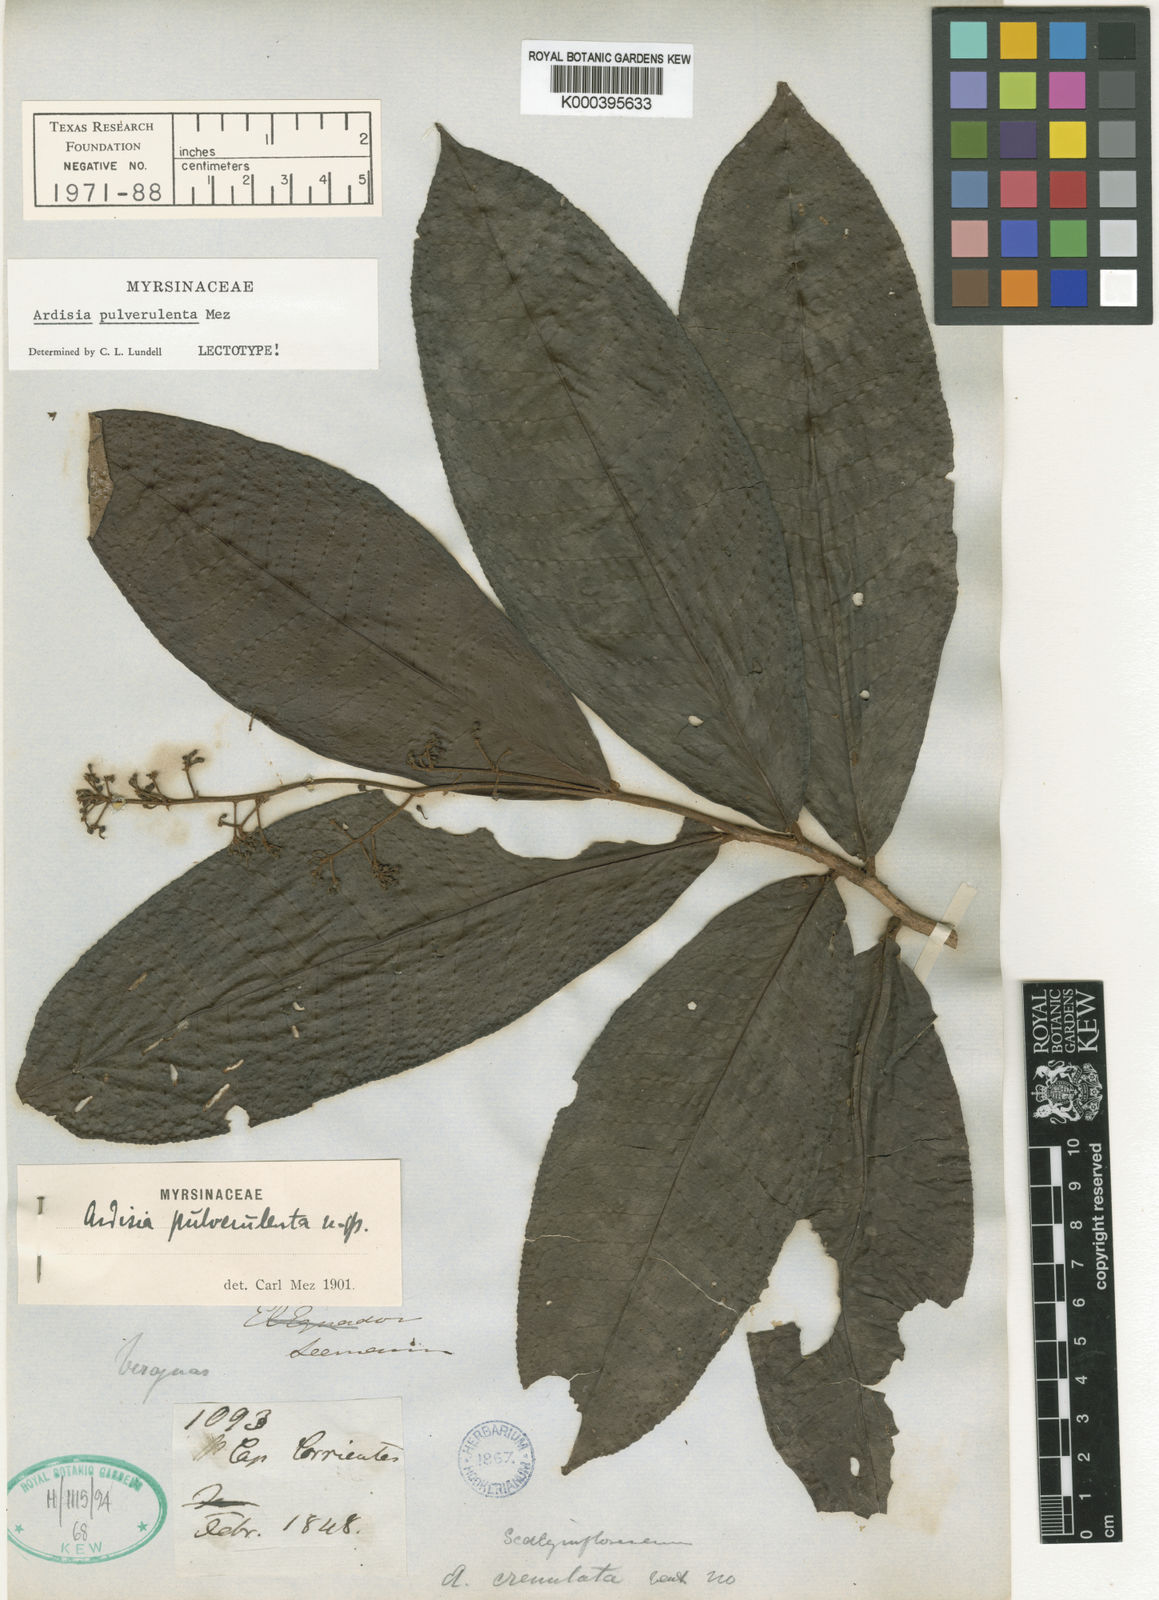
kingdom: Plantae
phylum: Tracheophyta
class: Magnoliopsida
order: Ericales
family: Primulaceae
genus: Ardisia
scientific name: Ardisia pulverulenta
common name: Blossomberry grape
